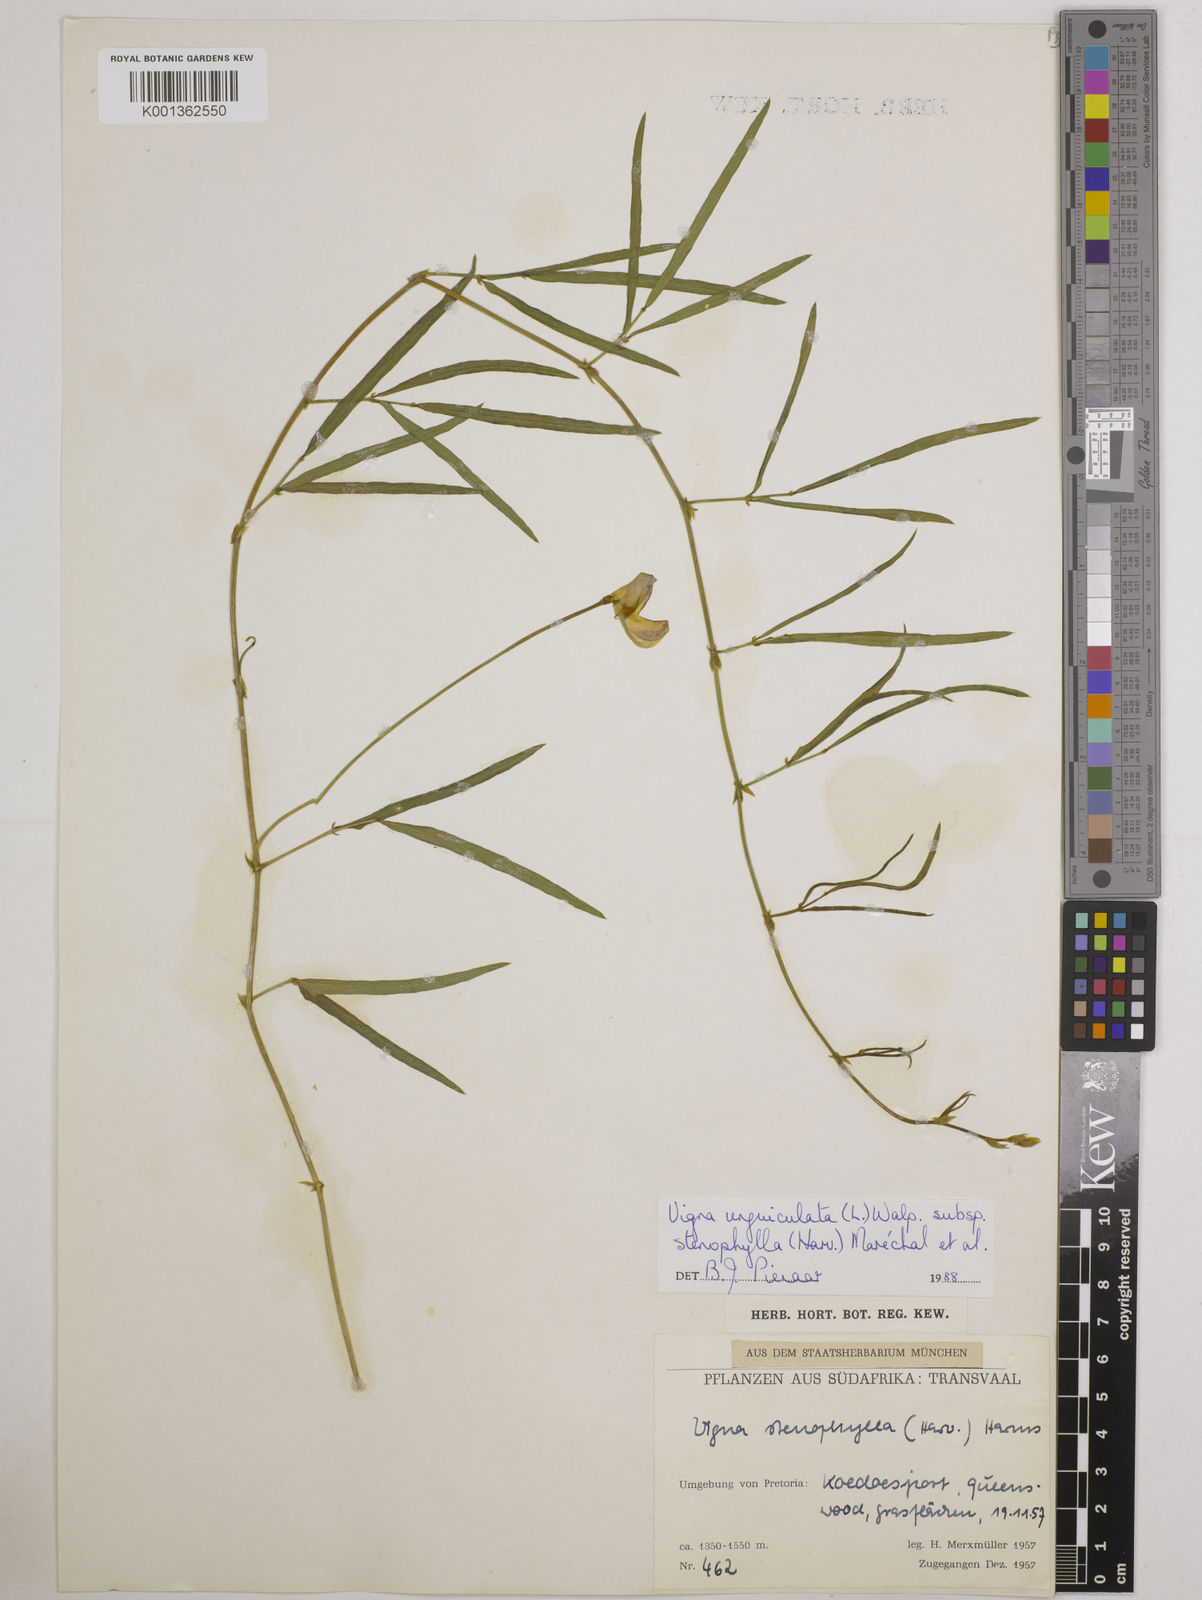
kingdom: Plantae
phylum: Tracheophyta
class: Magnoliopsida
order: Fabales
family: Fabaceae
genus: Vigna
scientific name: Vigna
